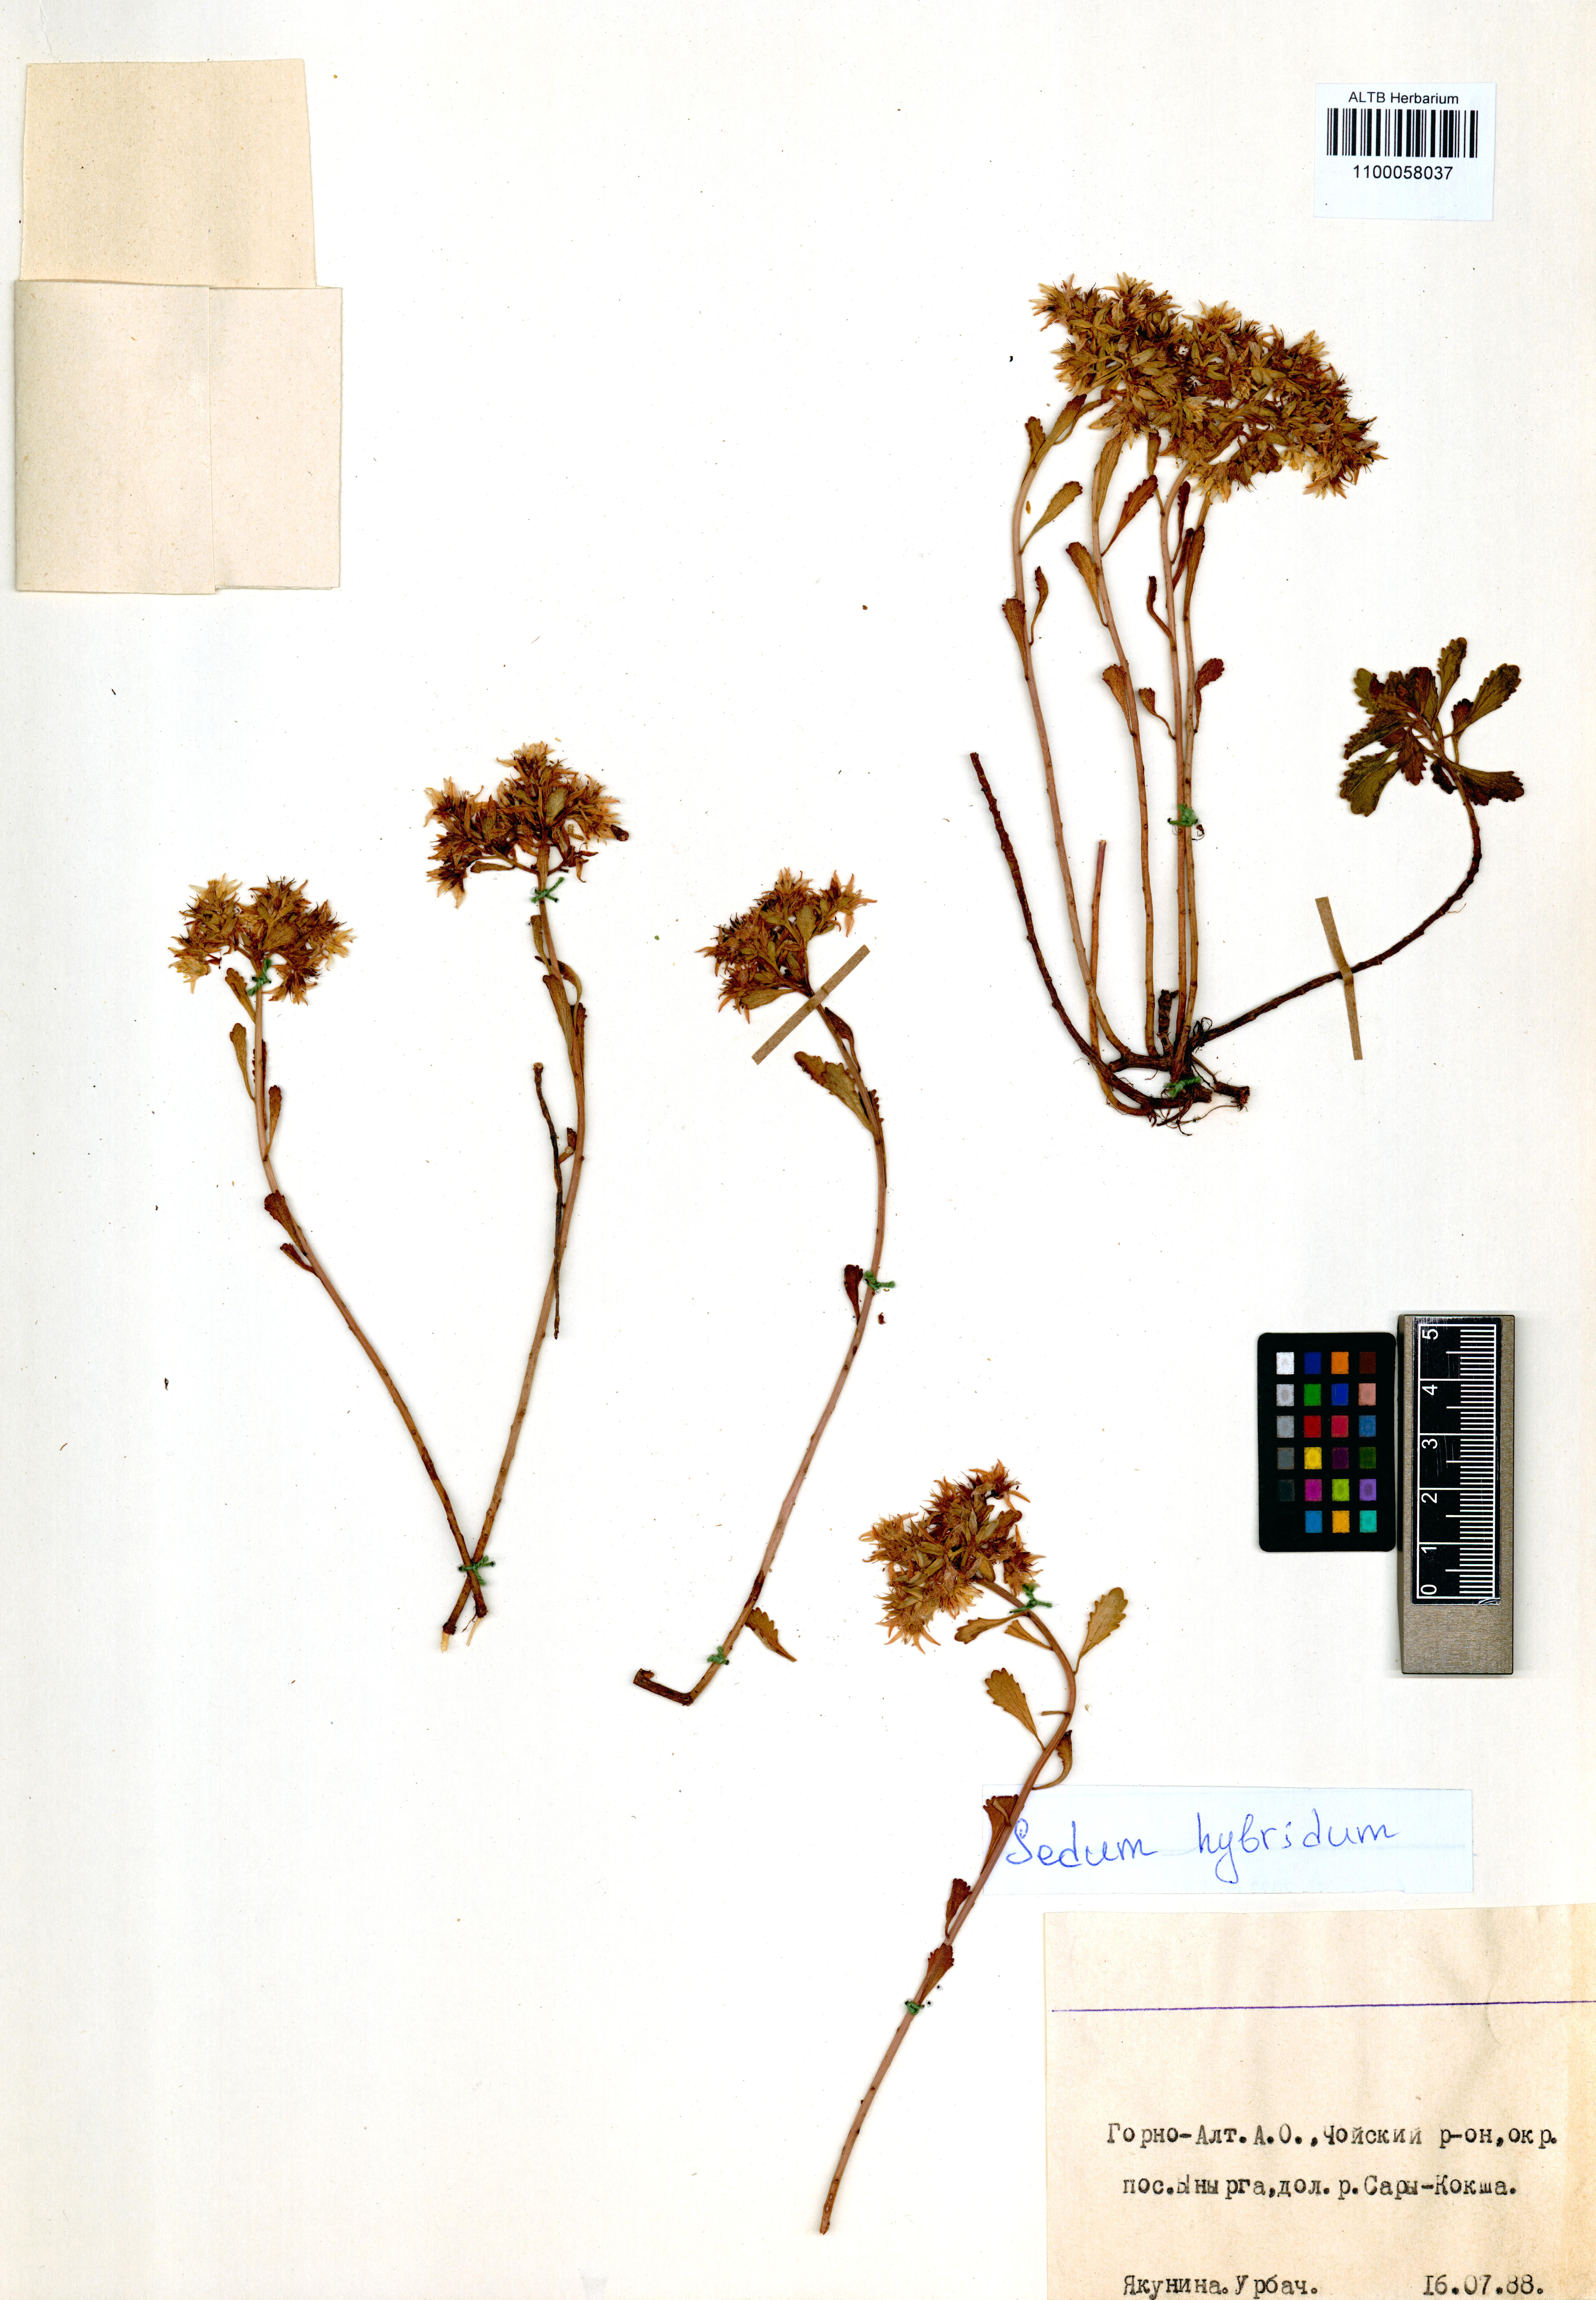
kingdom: Plantae
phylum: Tracheophyta
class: Magnoliopsida
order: Saxifragales
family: Crassulaceae
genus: Phedimus
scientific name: Phedimus hybridus
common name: Hybrid stonecrop
